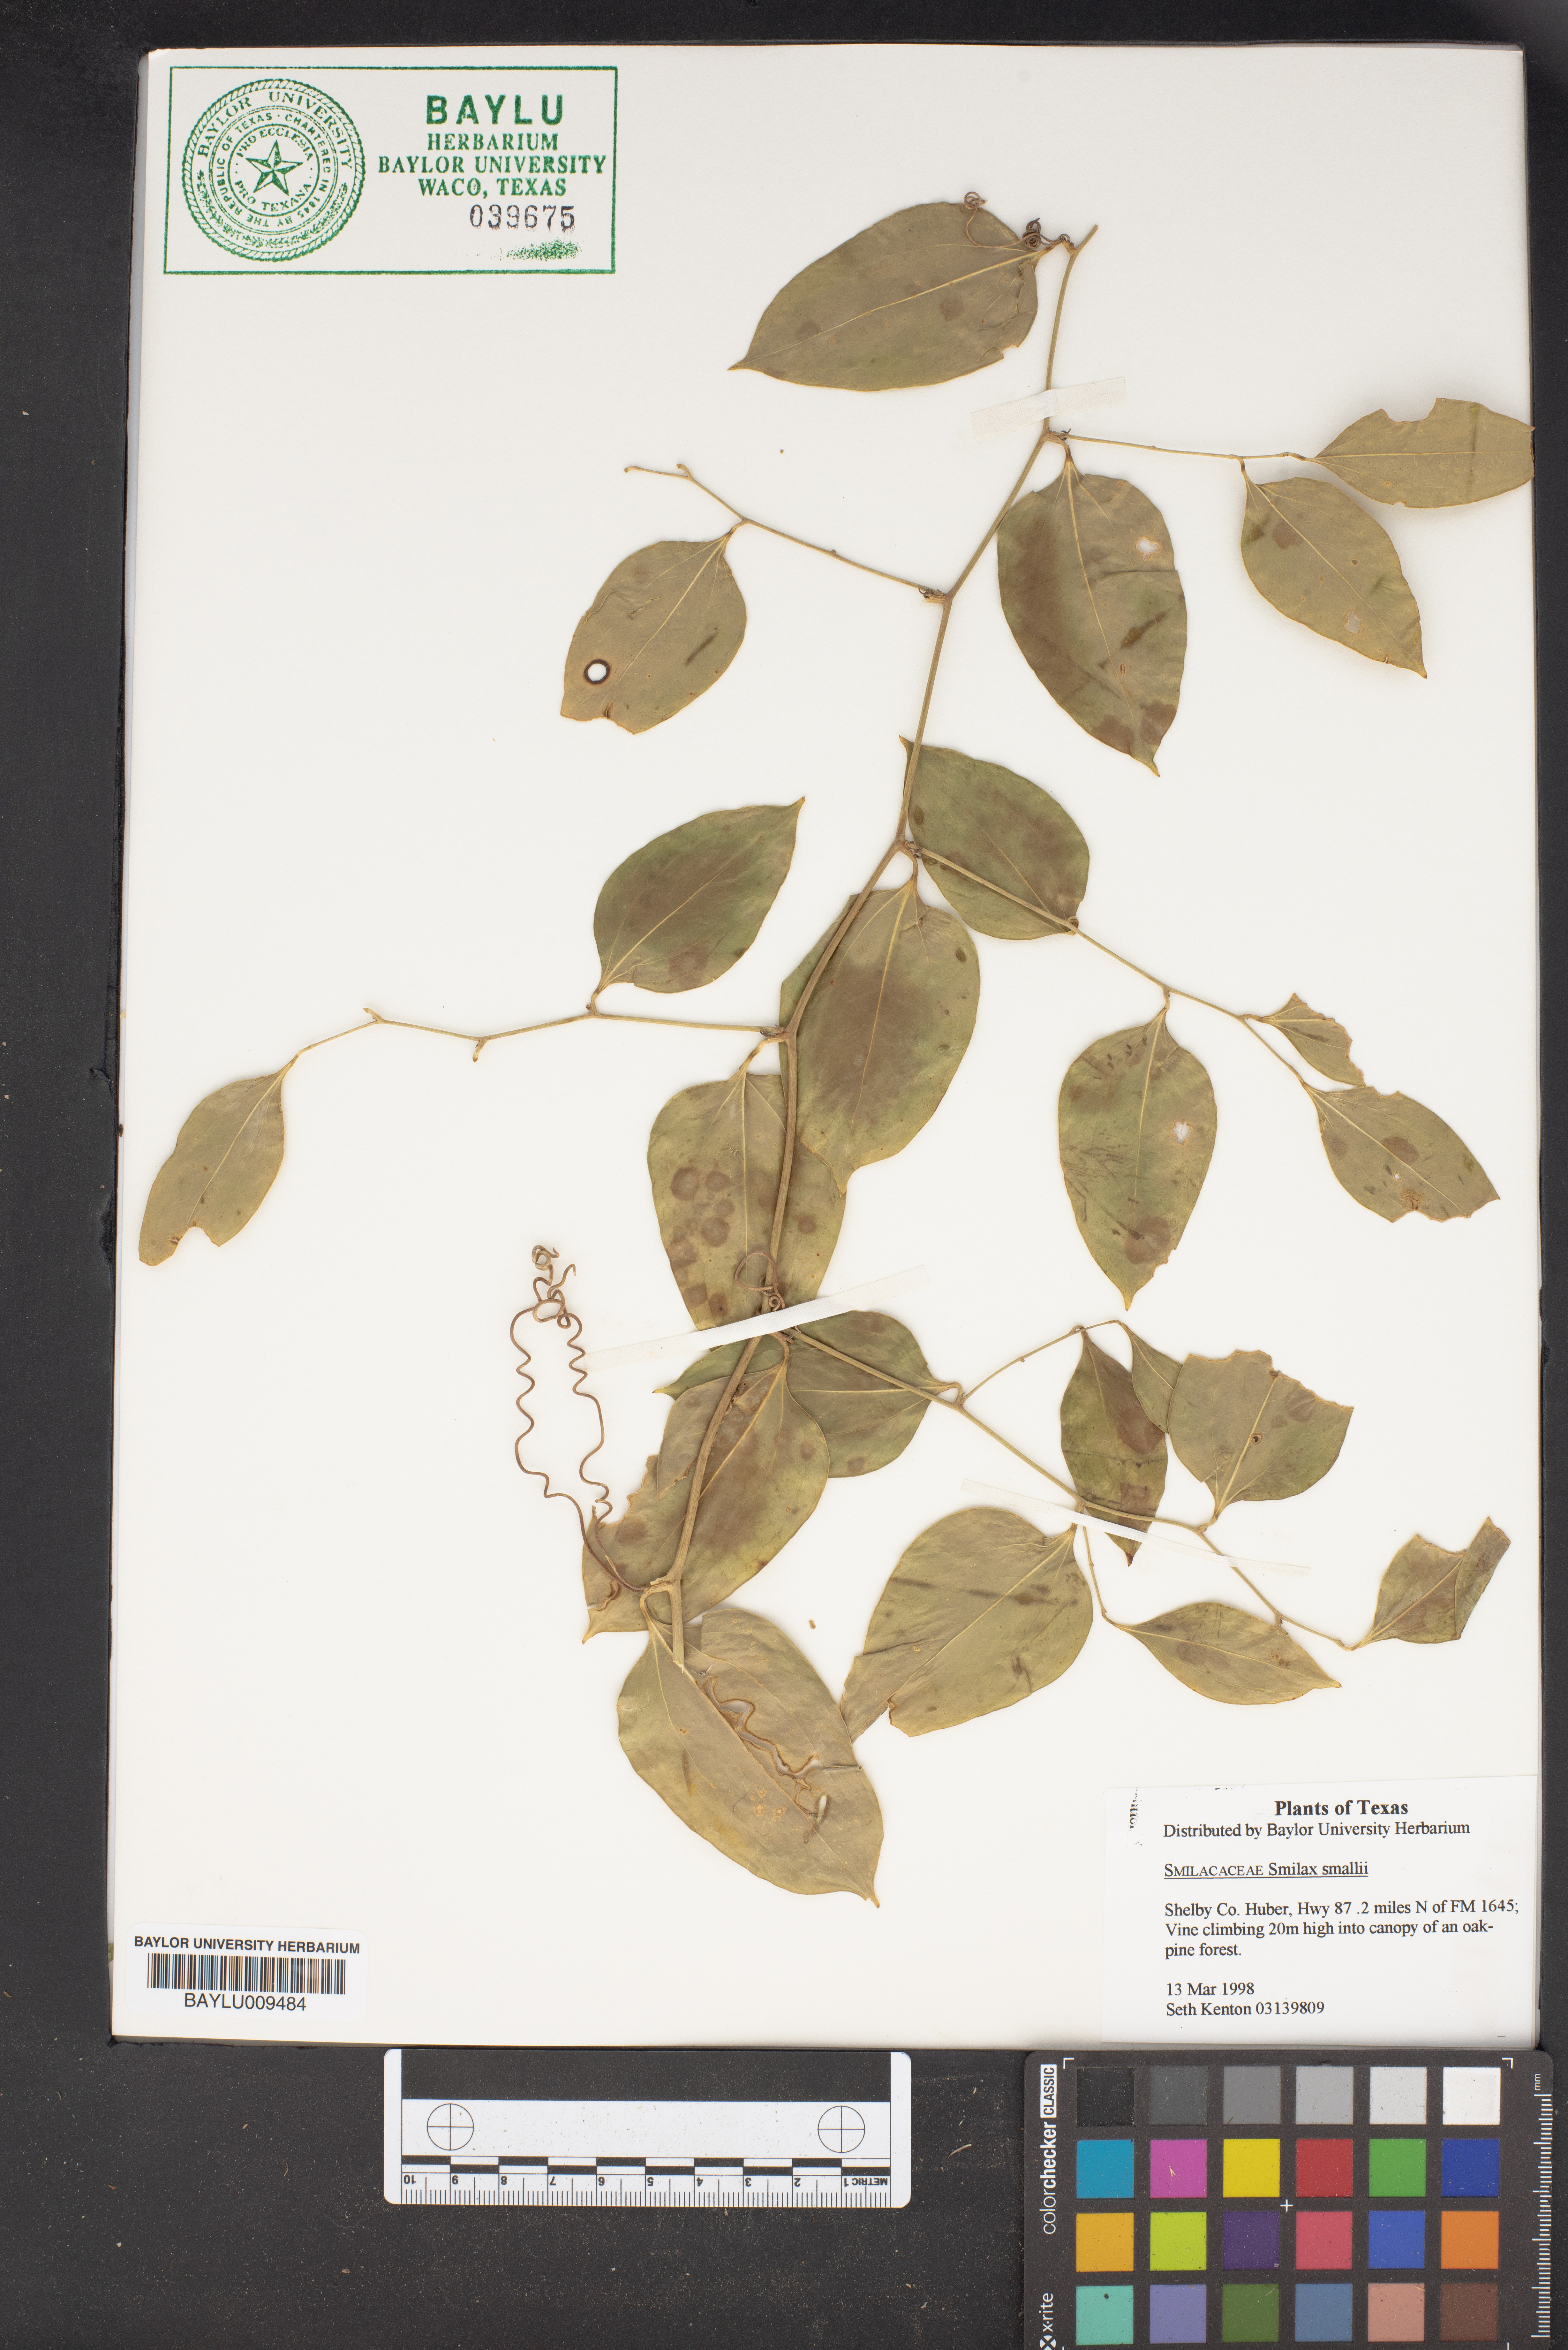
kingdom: Plantae
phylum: Tracheophyta
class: Liliopsida
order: Liliales
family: Smilacaceae
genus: Smilax
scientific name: Smilax maritima
